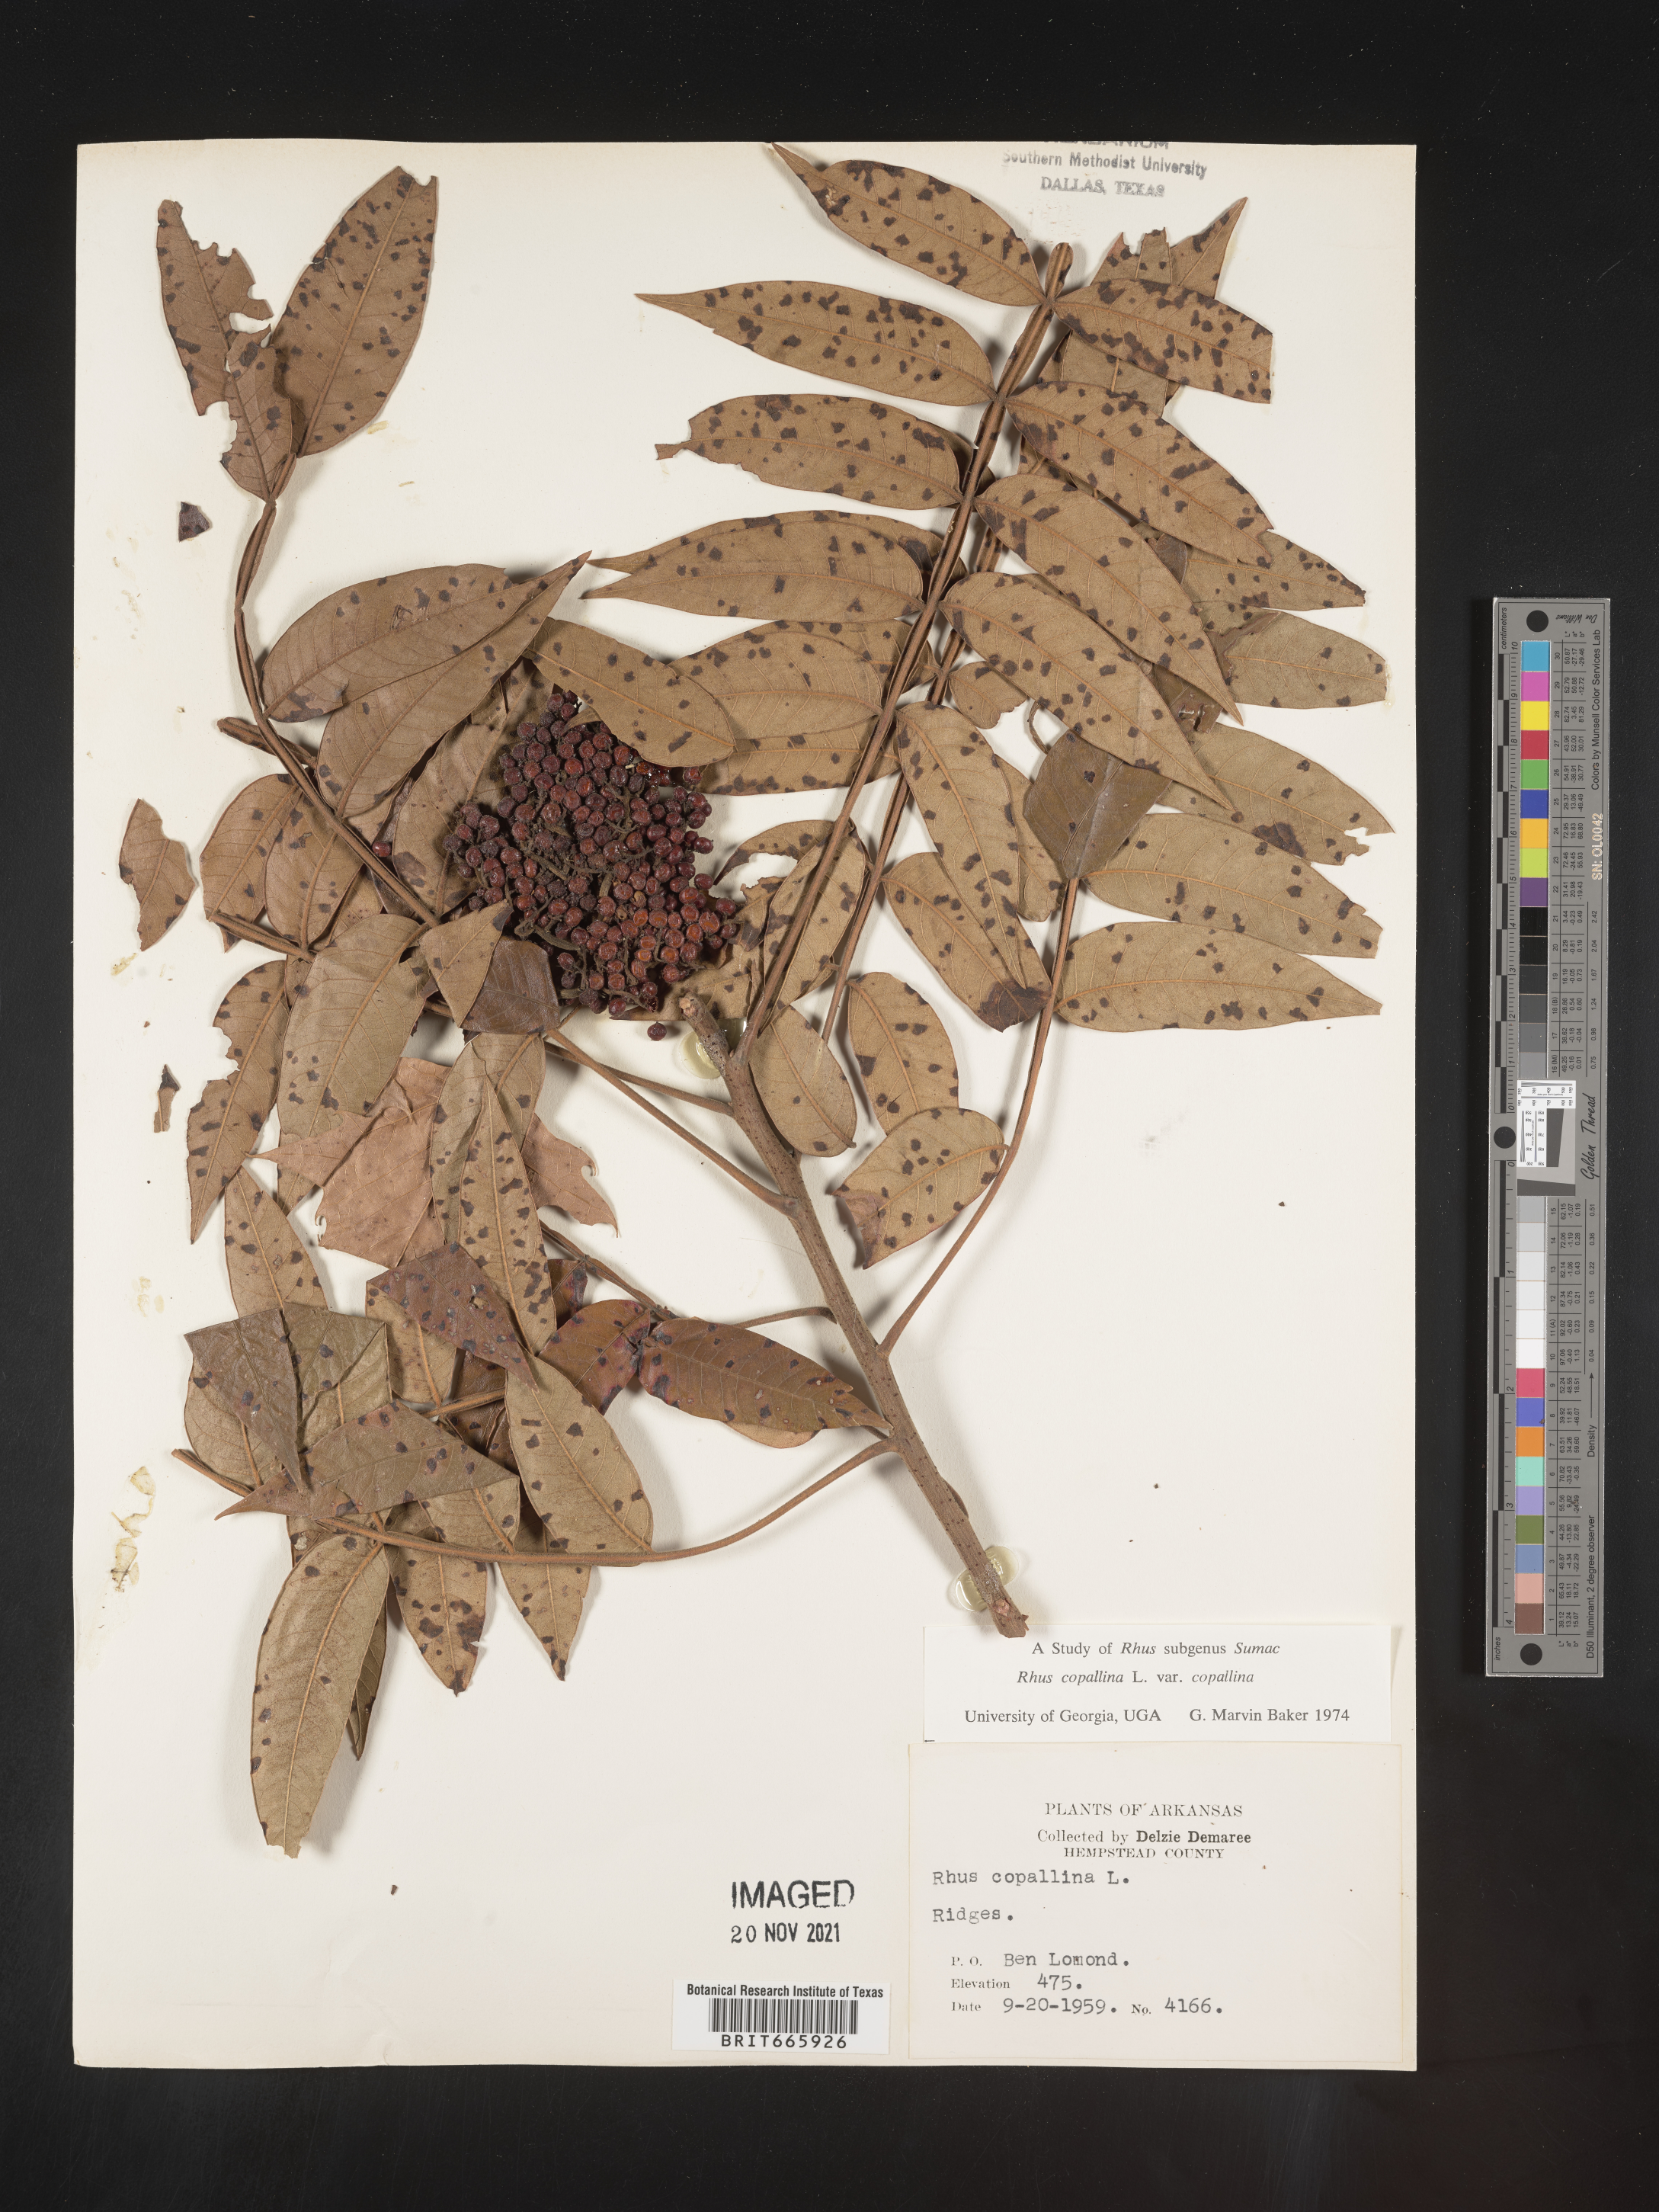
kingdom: Plantae
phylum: Tracheophyta
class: Magnoliopsida
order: Sapindales
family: Anacardiaceae
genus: Rhus
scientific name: Rhus copallina
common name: Shining sumac
